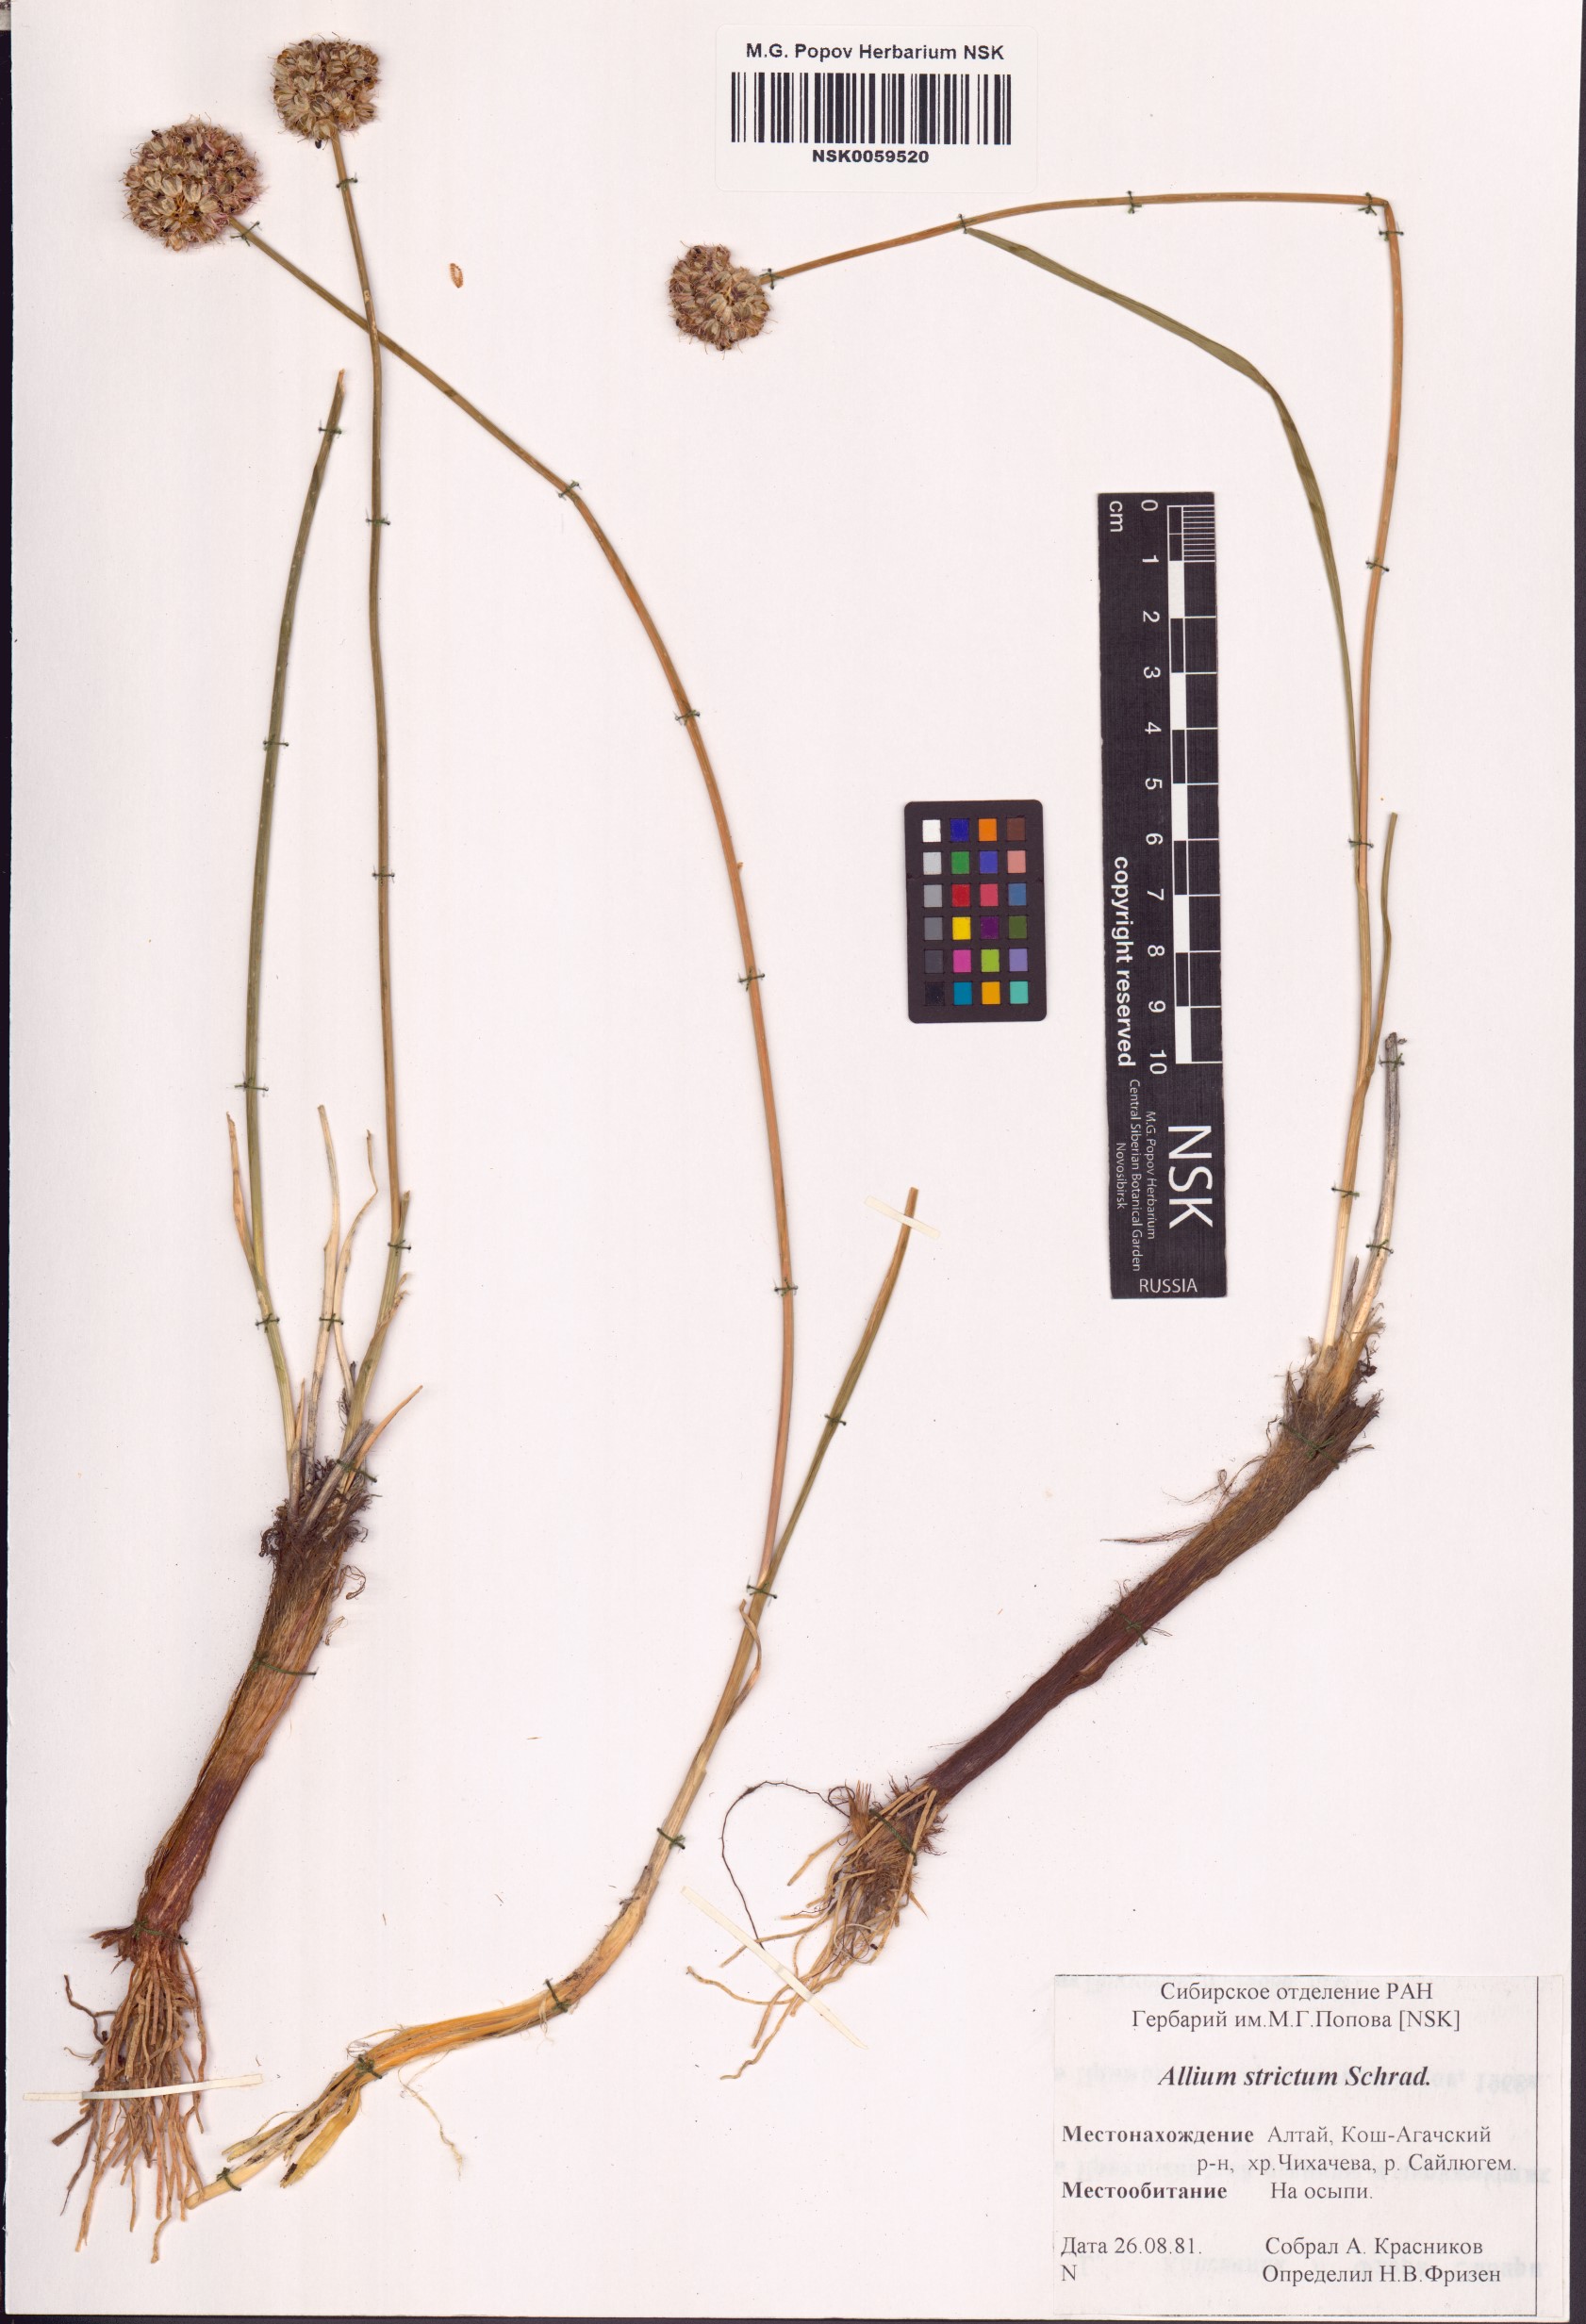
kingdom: Plantae
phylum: Tracheophyta
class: Liliopsida
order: Asparagales
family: Amaryllidaceae
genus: Allium
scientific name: Allium strictum
